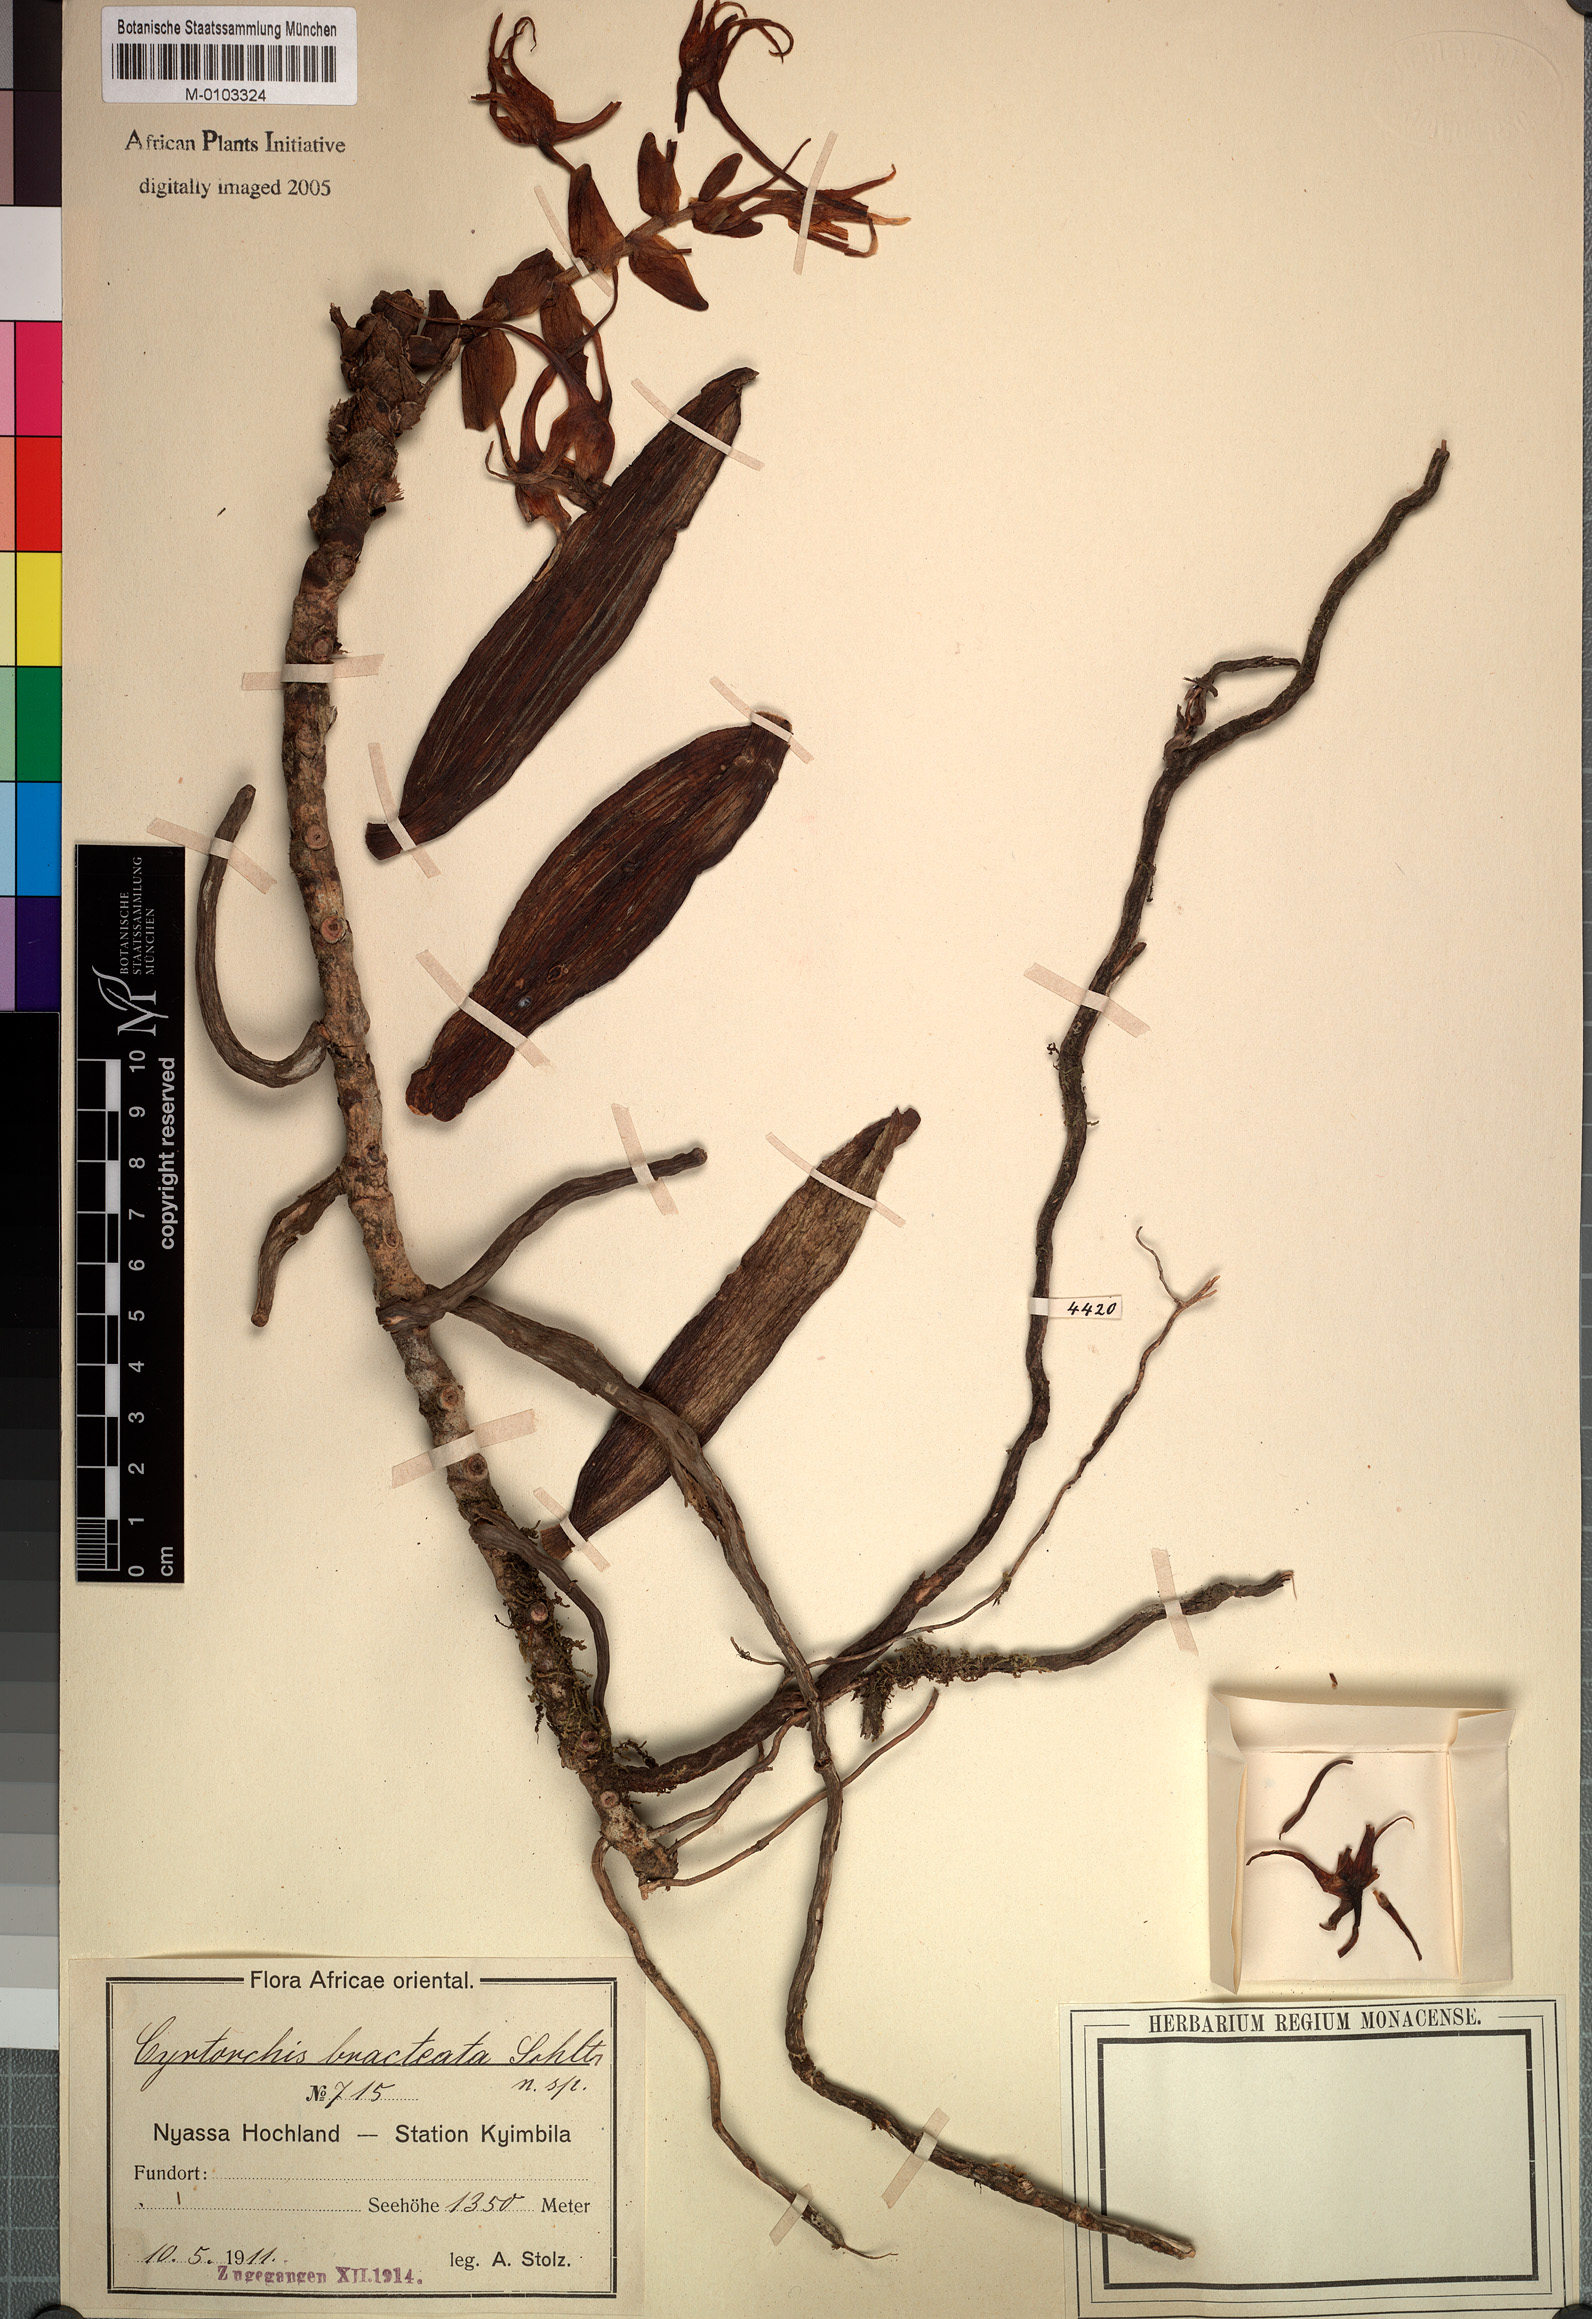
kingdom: Plantae
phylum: Tracheophyta
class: Liliopsida
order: Asparagales
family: Orchidaceae
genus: Cyrtorchis
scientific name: Cyrtorchis arcuata
